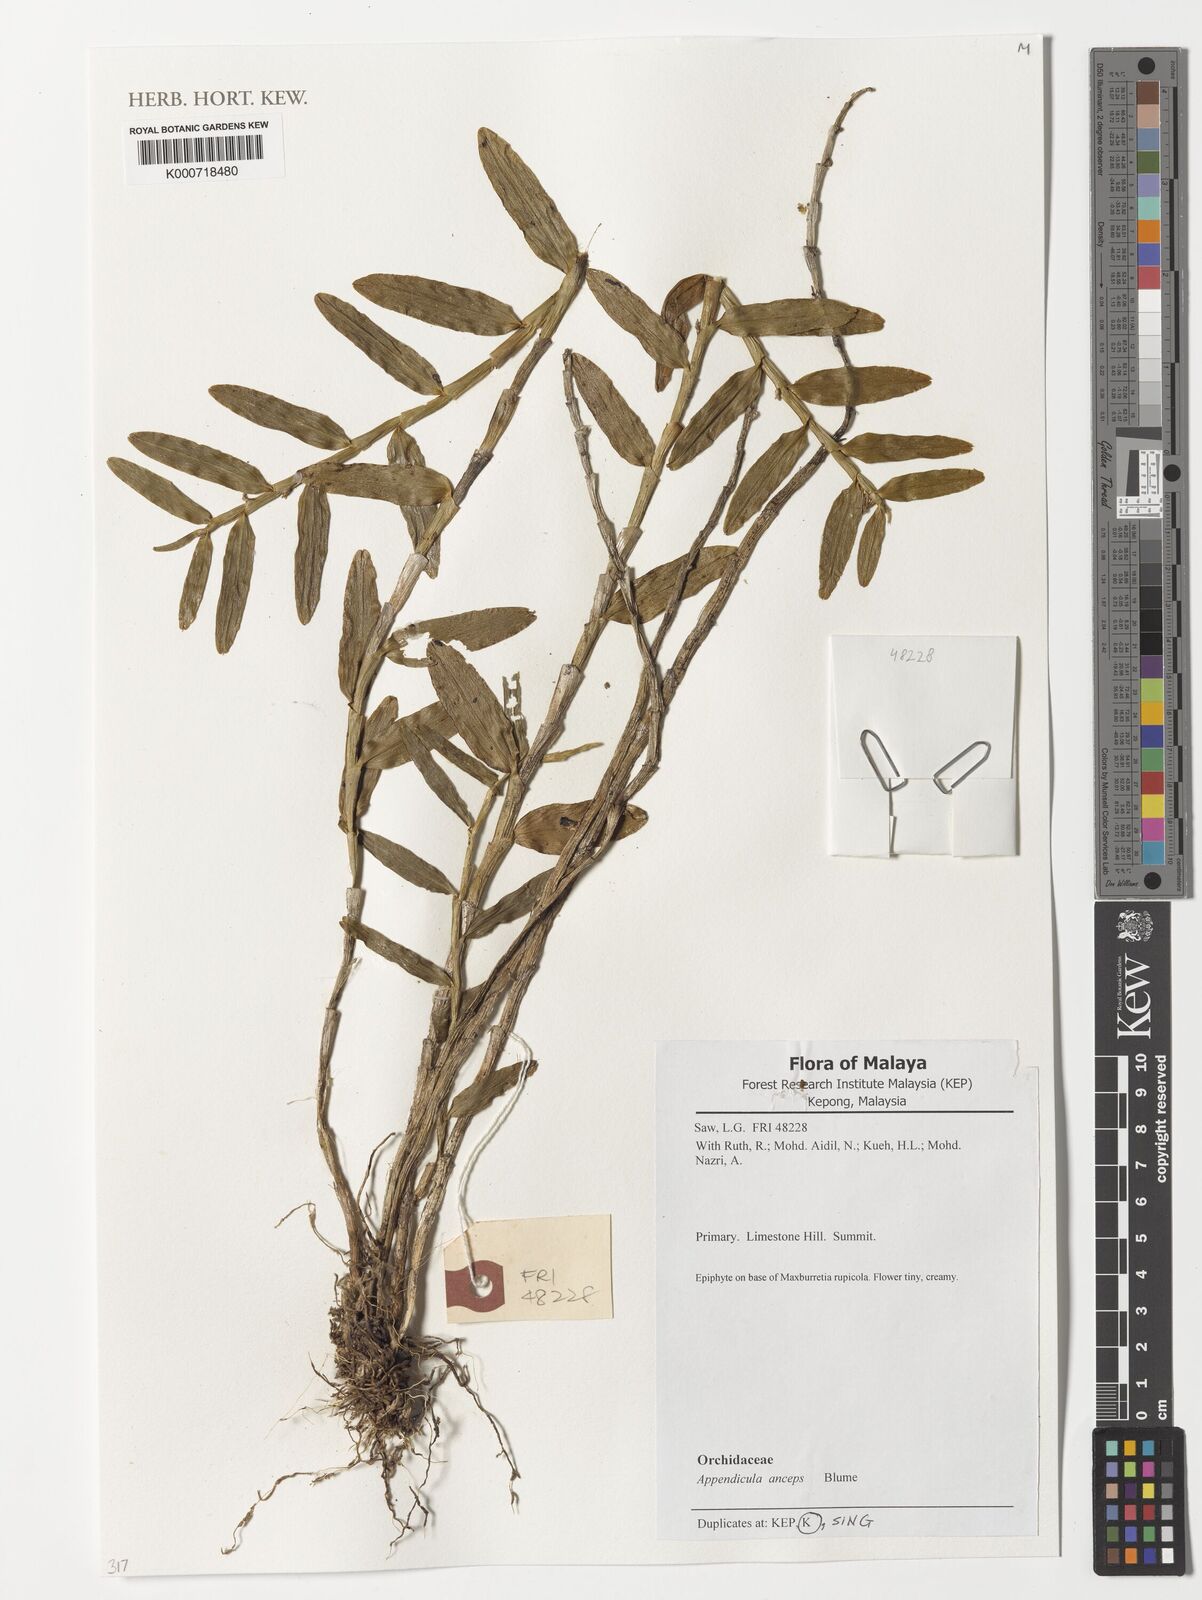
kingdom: Plantae
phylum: Tracheophyta
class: Liliopsida
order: Asparagales
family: Orchidaceae
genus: Appendicula
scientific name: Appendicula anceps
